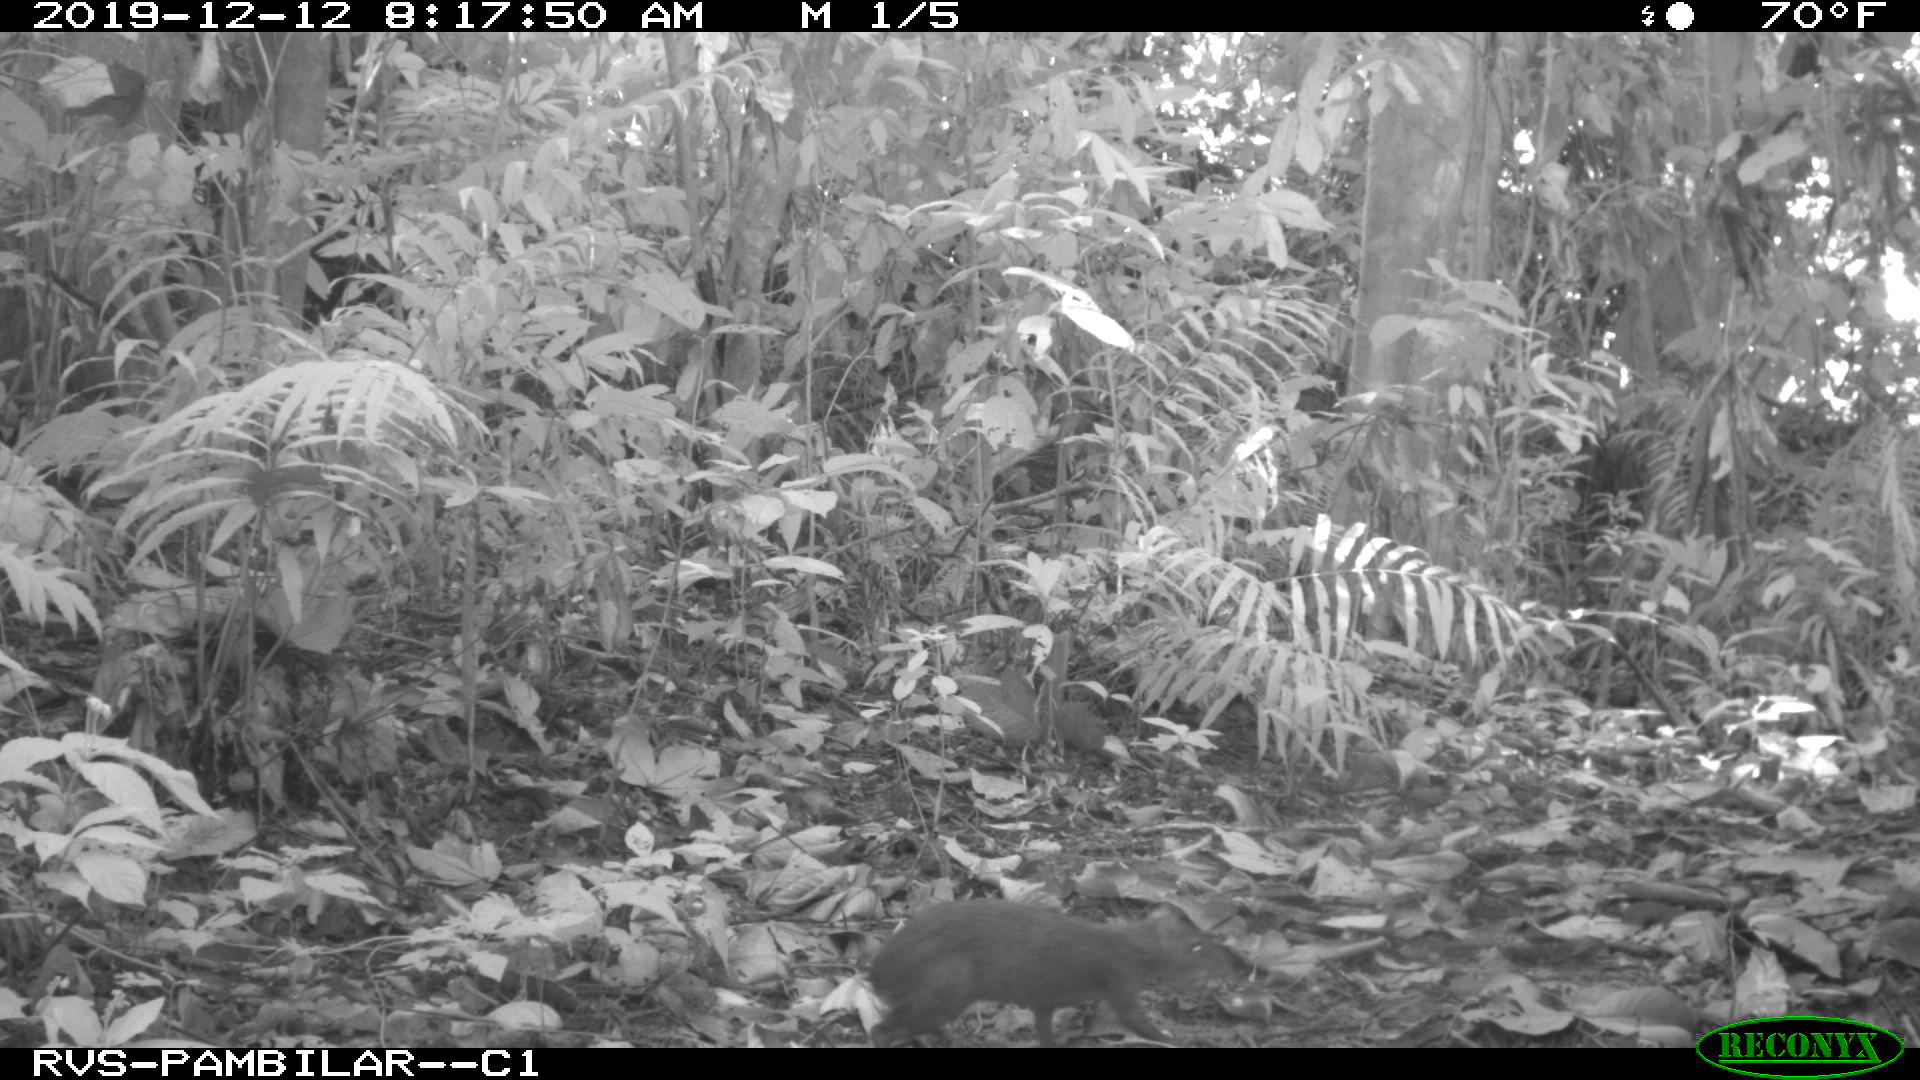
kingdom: Animalia
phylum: Chordata
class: Mammalia
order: Rodentia
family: Dasyproctidae
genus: Dasyprocta
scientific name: Dasyprocta punctata
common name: Central american agouti
